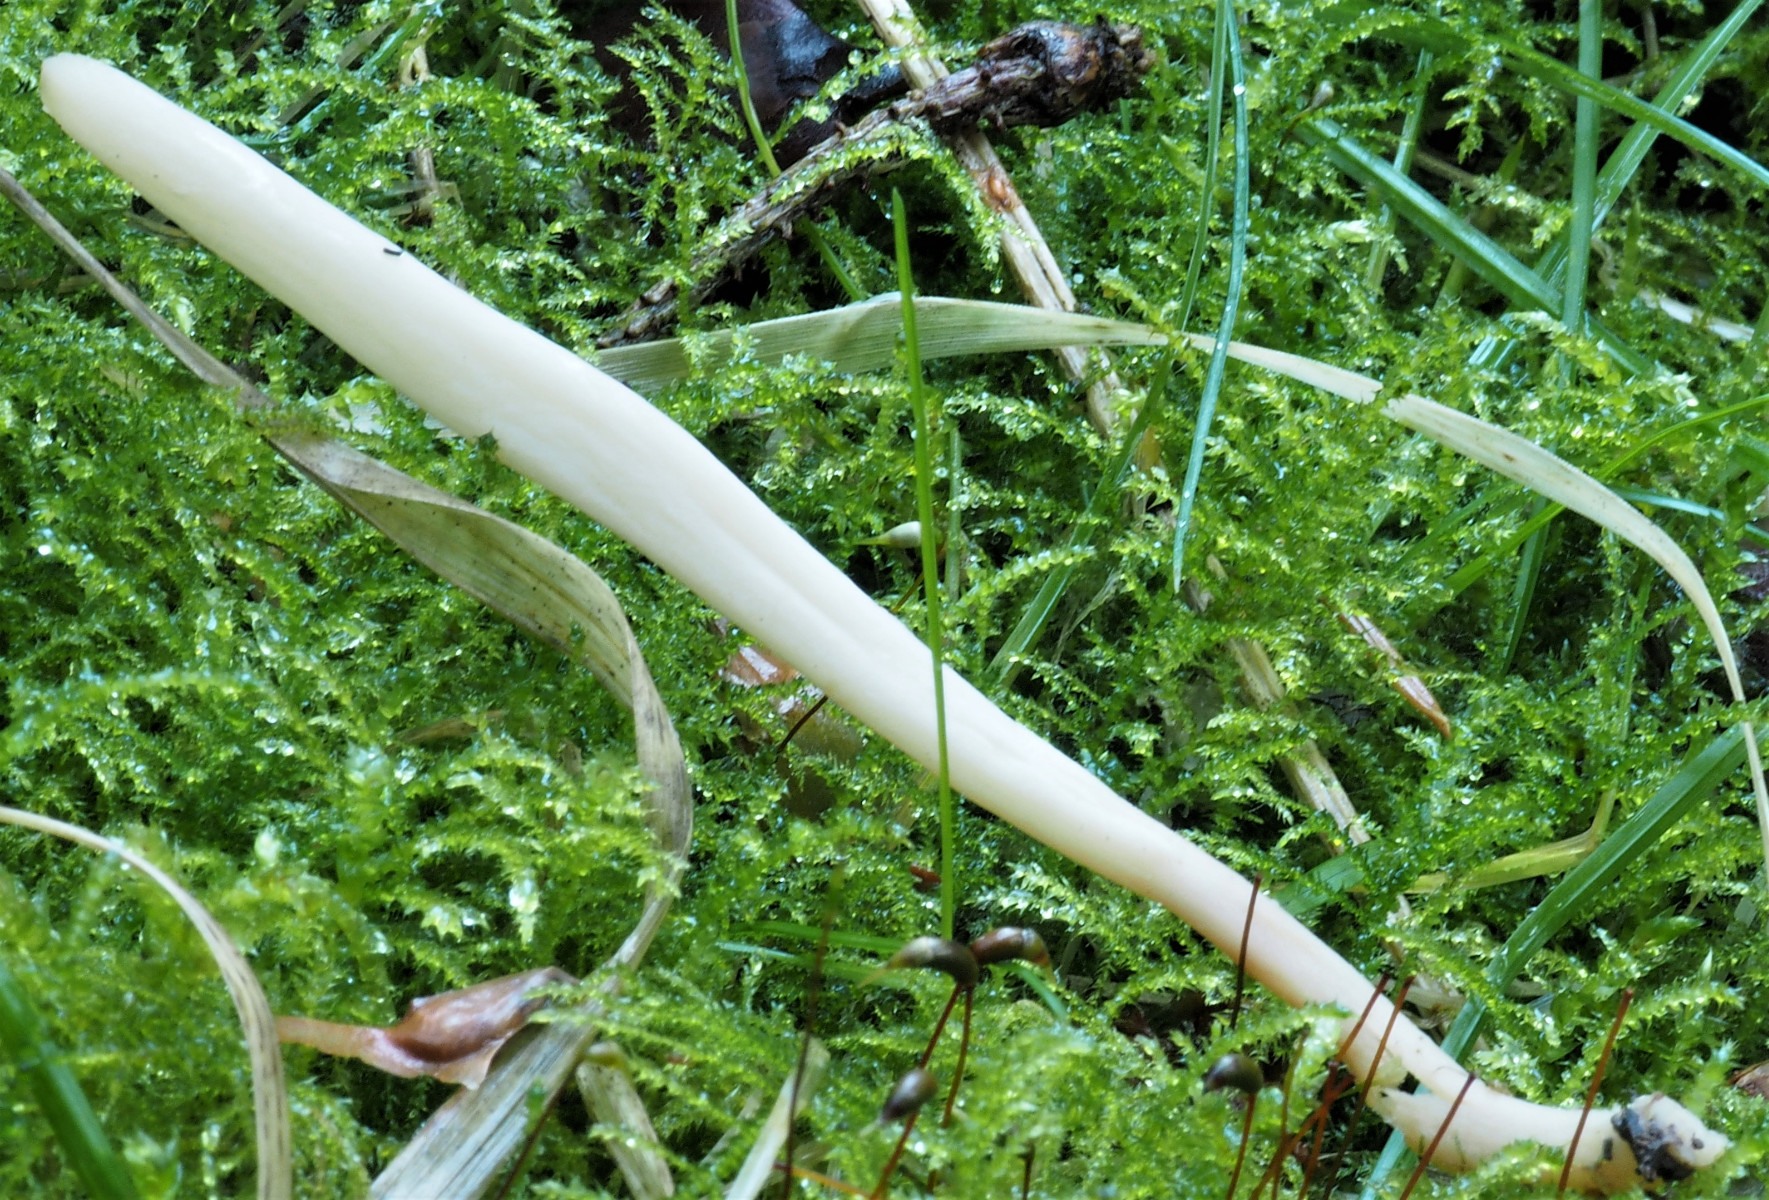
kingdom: Plantae
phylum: Bryophyta
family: Agaricomycetidae
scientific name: Agaricomycetidae
